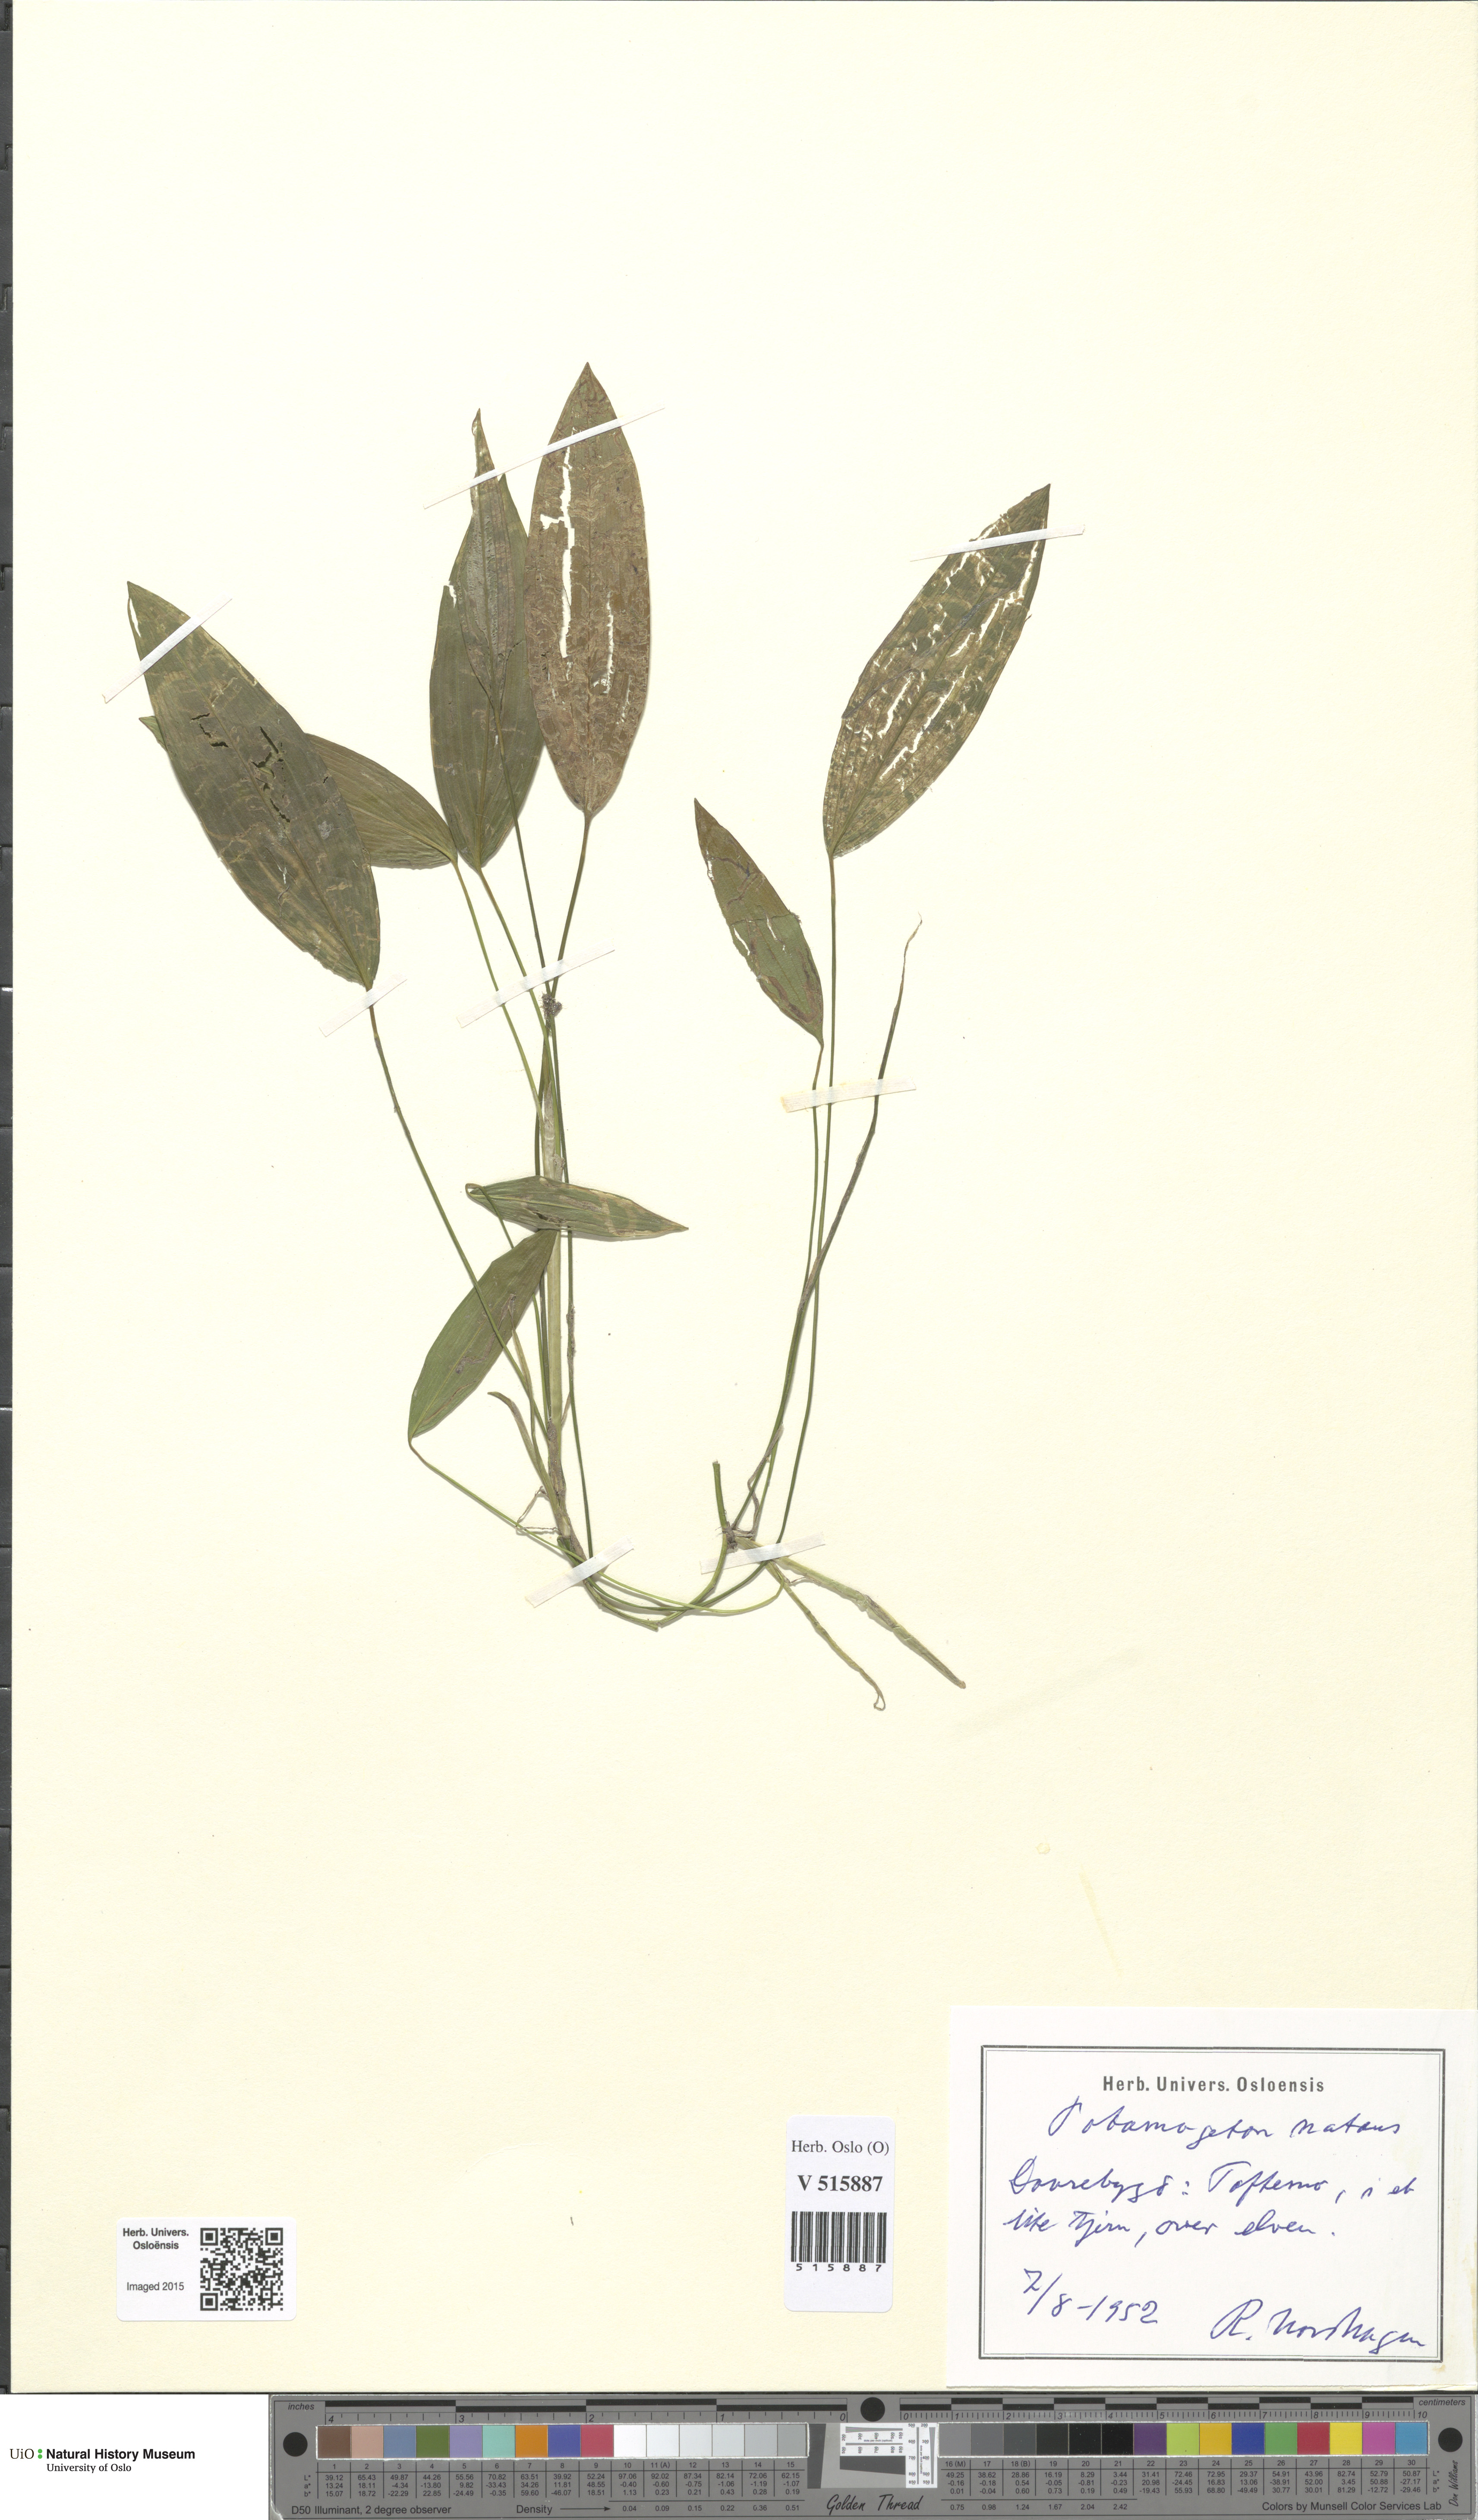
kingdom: Plantae
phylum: Tracheophyta
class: Liliopsida
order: Alismatales
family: Potamogetonaceae
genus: Potamogeton
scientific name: Potamogeton natans
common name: Broad-leaved pondweed
